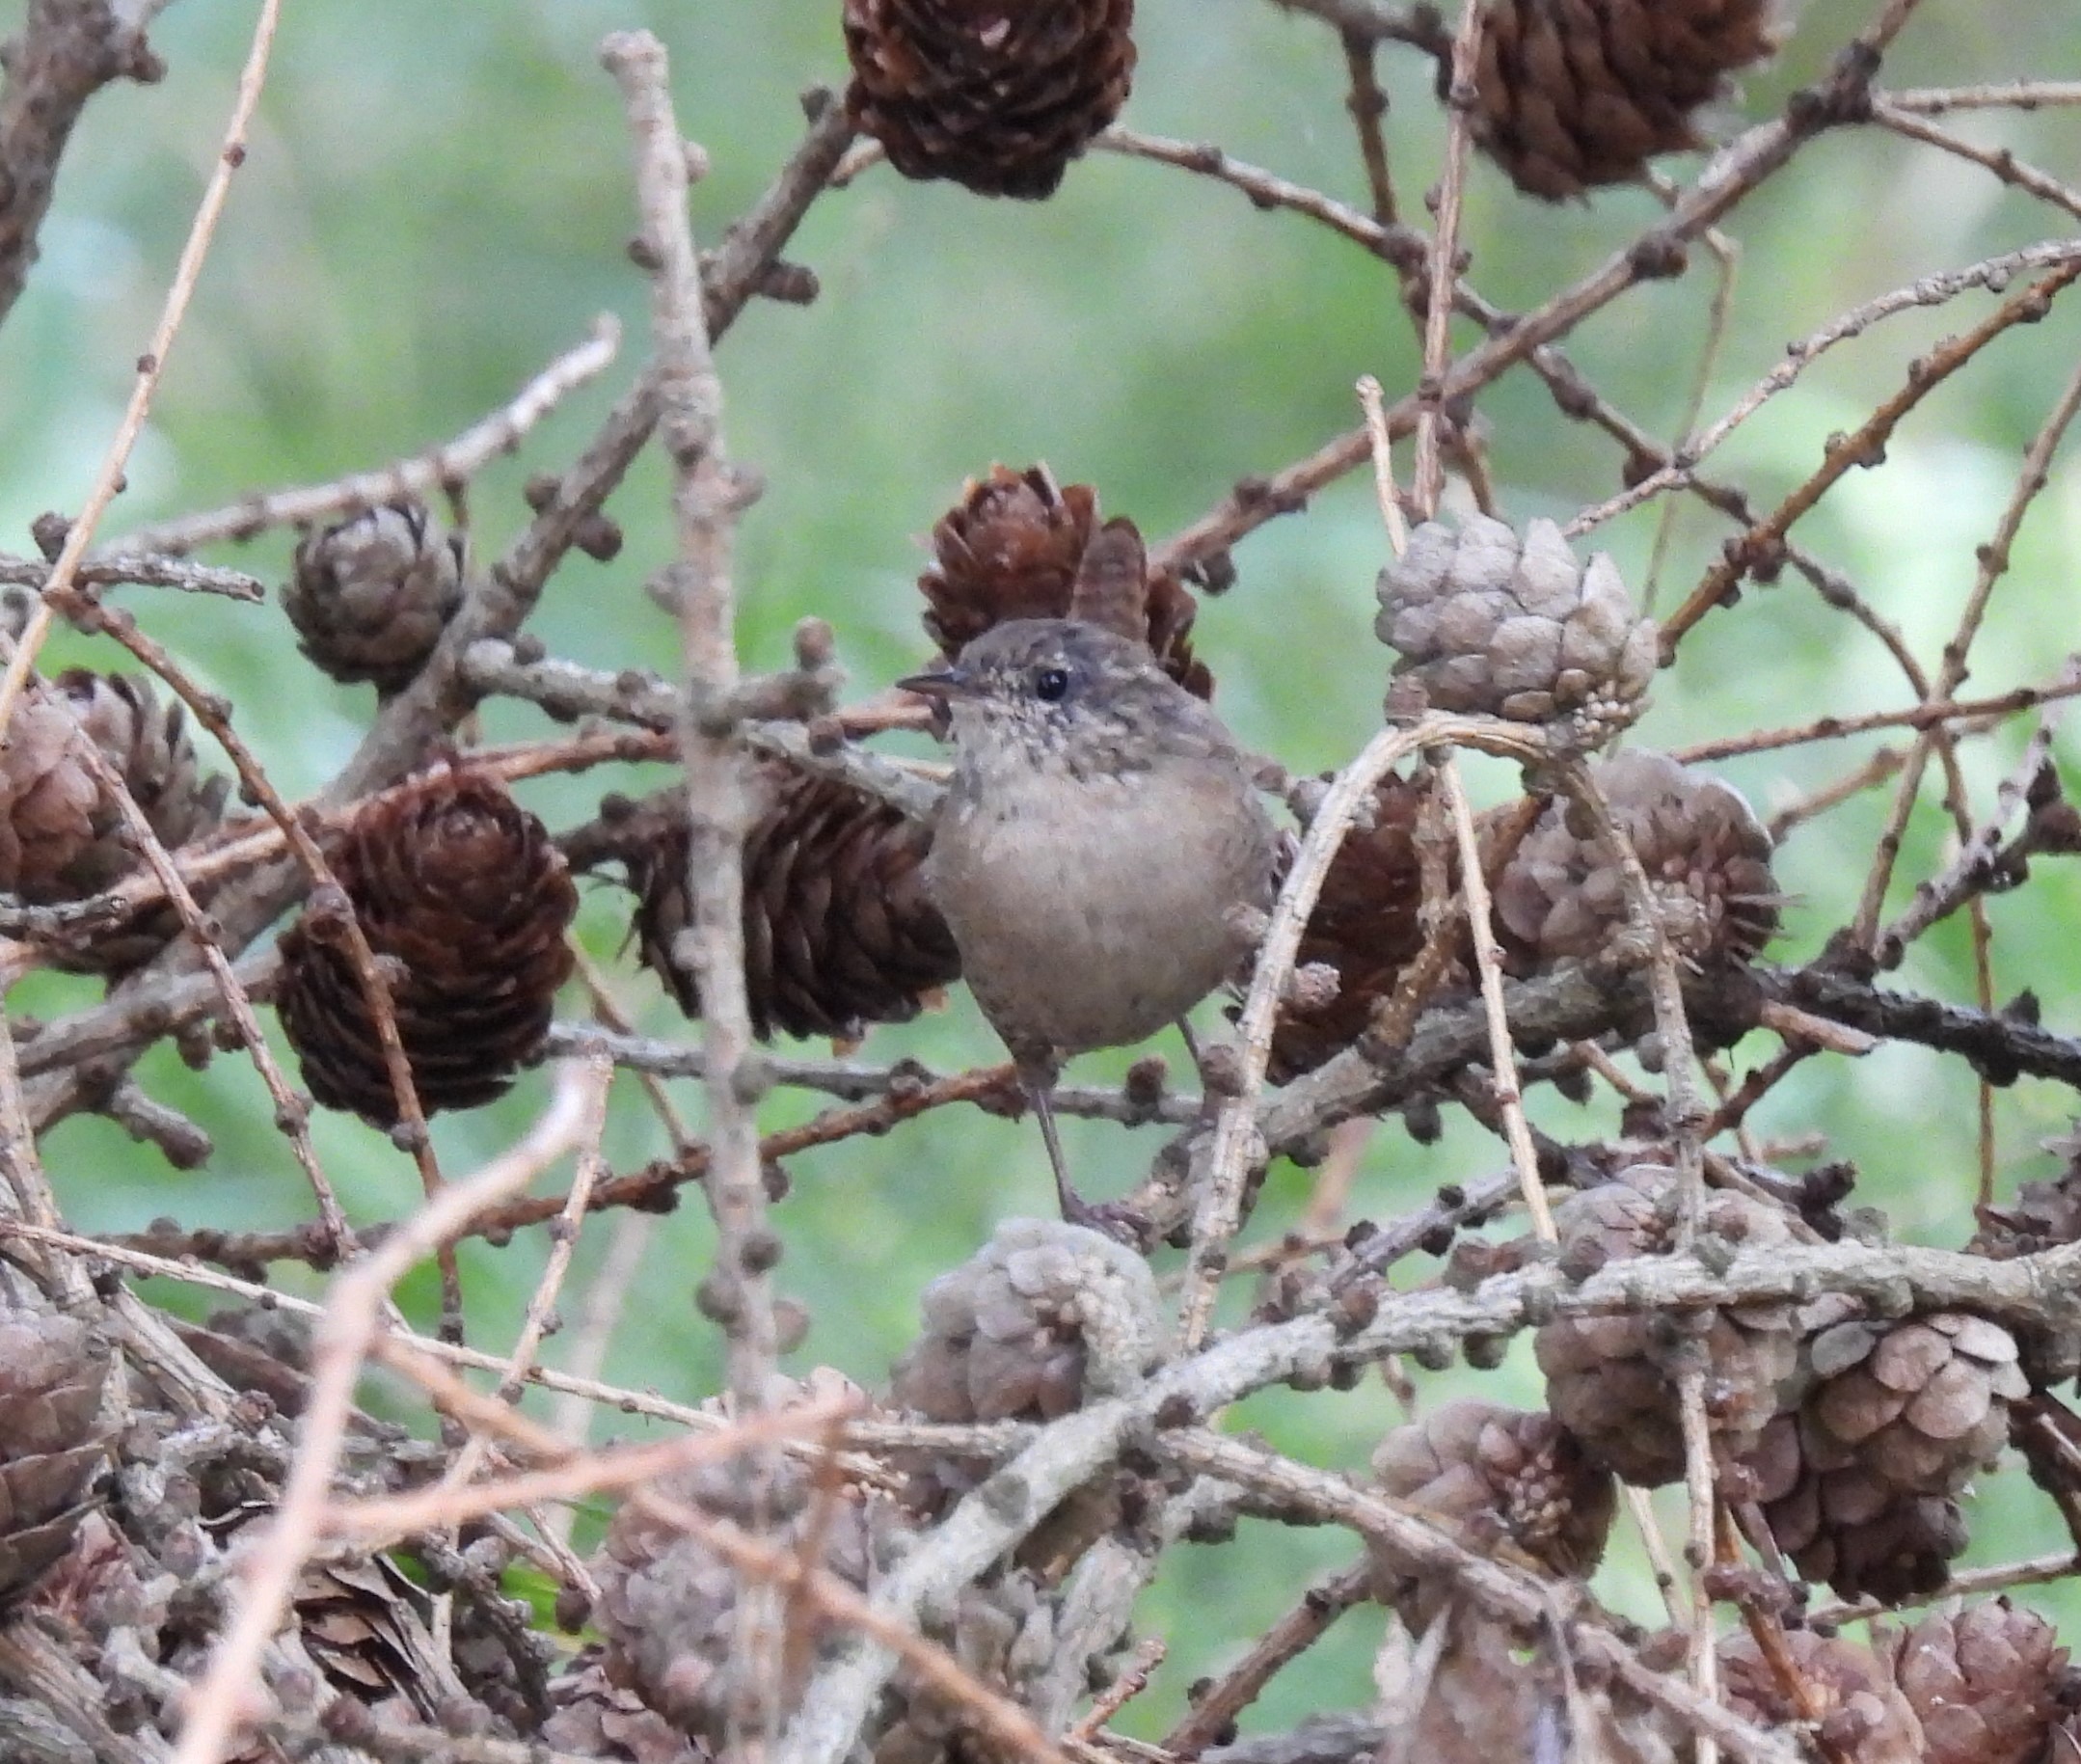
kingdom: Animalia
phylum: Chordata
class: Aves
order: Passeriformes
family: Troglodytidae
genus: Troglodytes
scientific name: Troglodytes troglodytes
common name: Gærdesmutte
